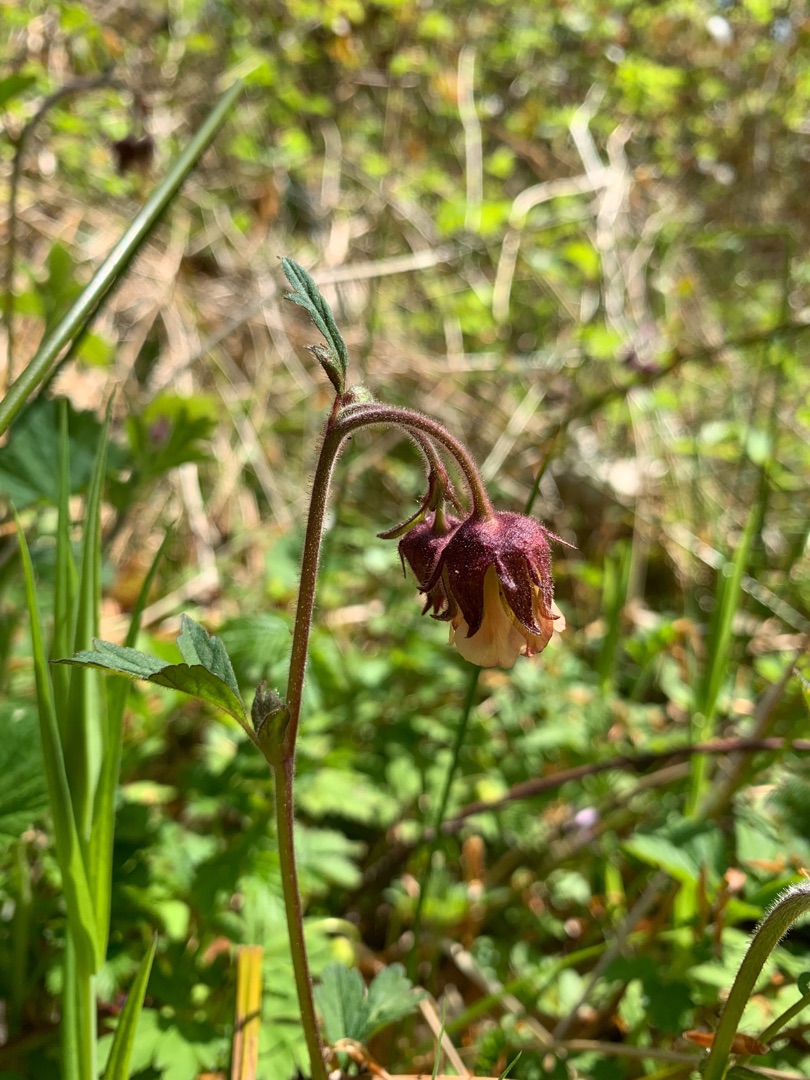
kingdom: Plantae
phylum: Tracheophyta
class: Magnoliopsida
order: Rosales
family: Rosaceae
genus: Geum
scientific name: Geum rivale
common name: Eng-nellikerod
